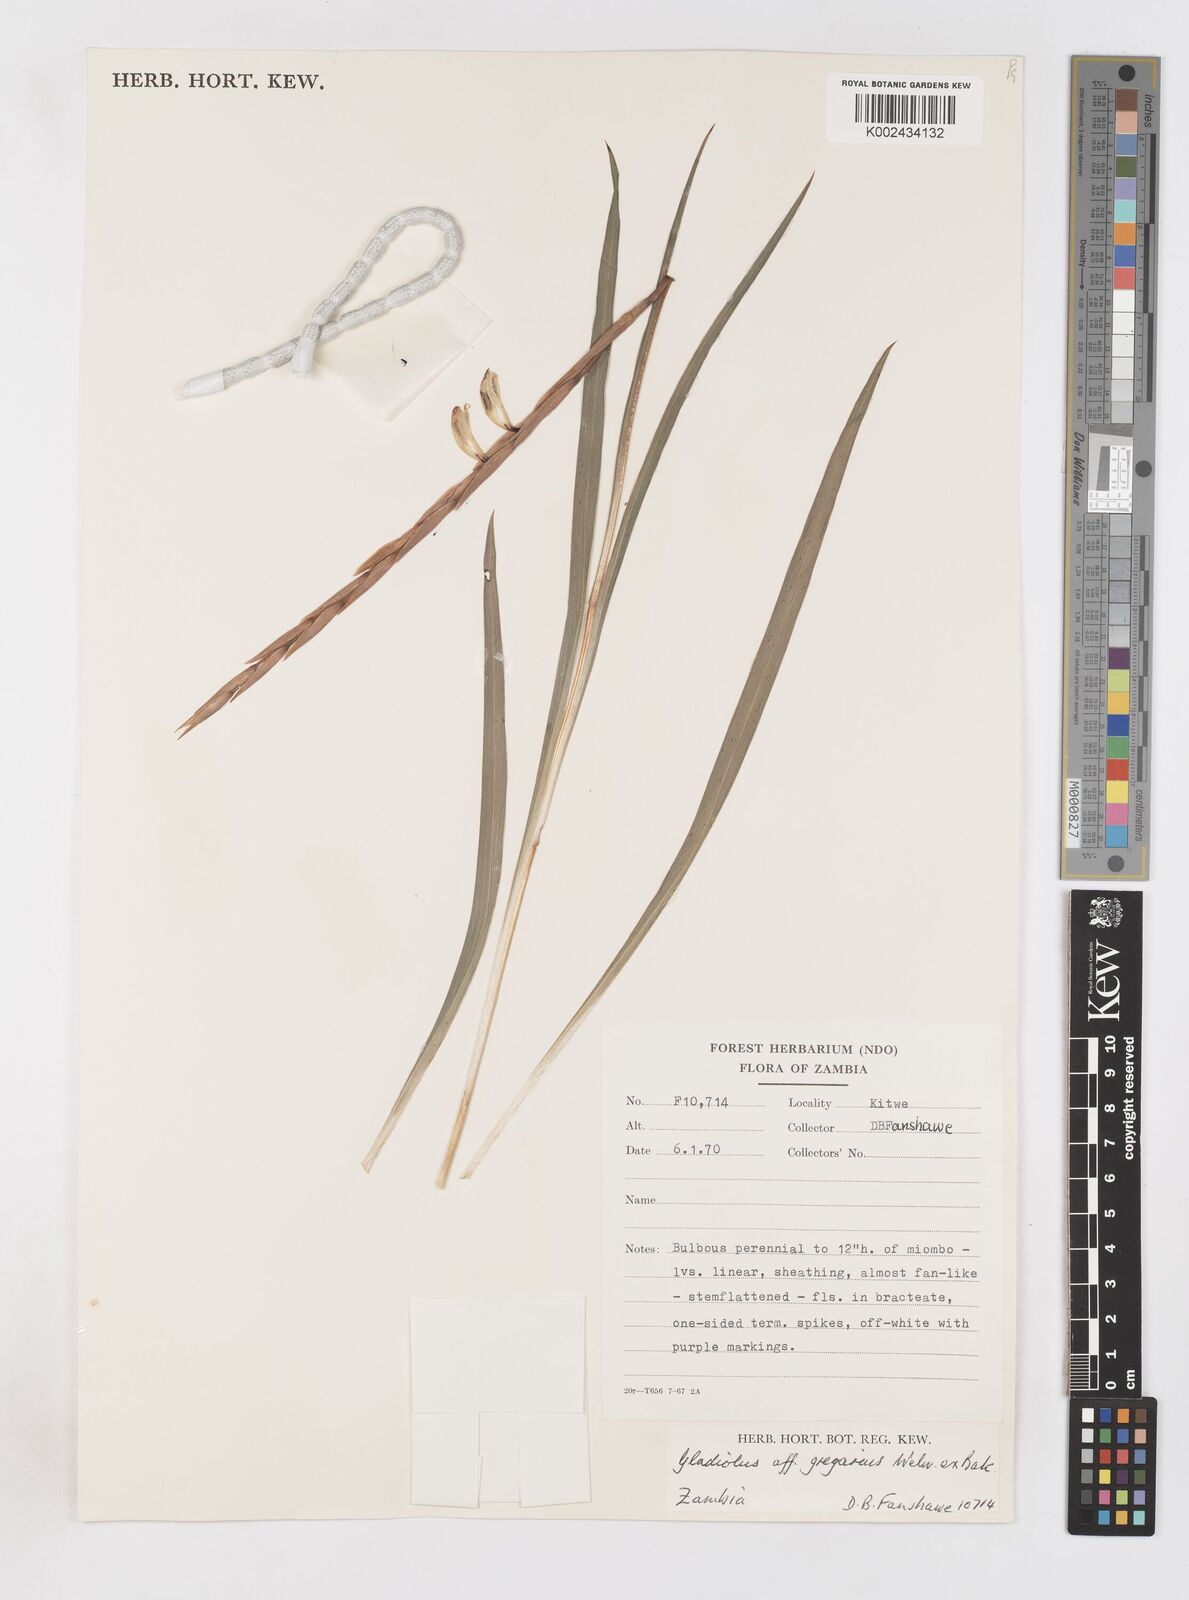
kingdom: Plantae
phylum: Tracheophyta
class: Liliopsida
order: Asparagales
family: Iridaceae
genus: Gladiolus
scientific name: Gladiolus gregarius
